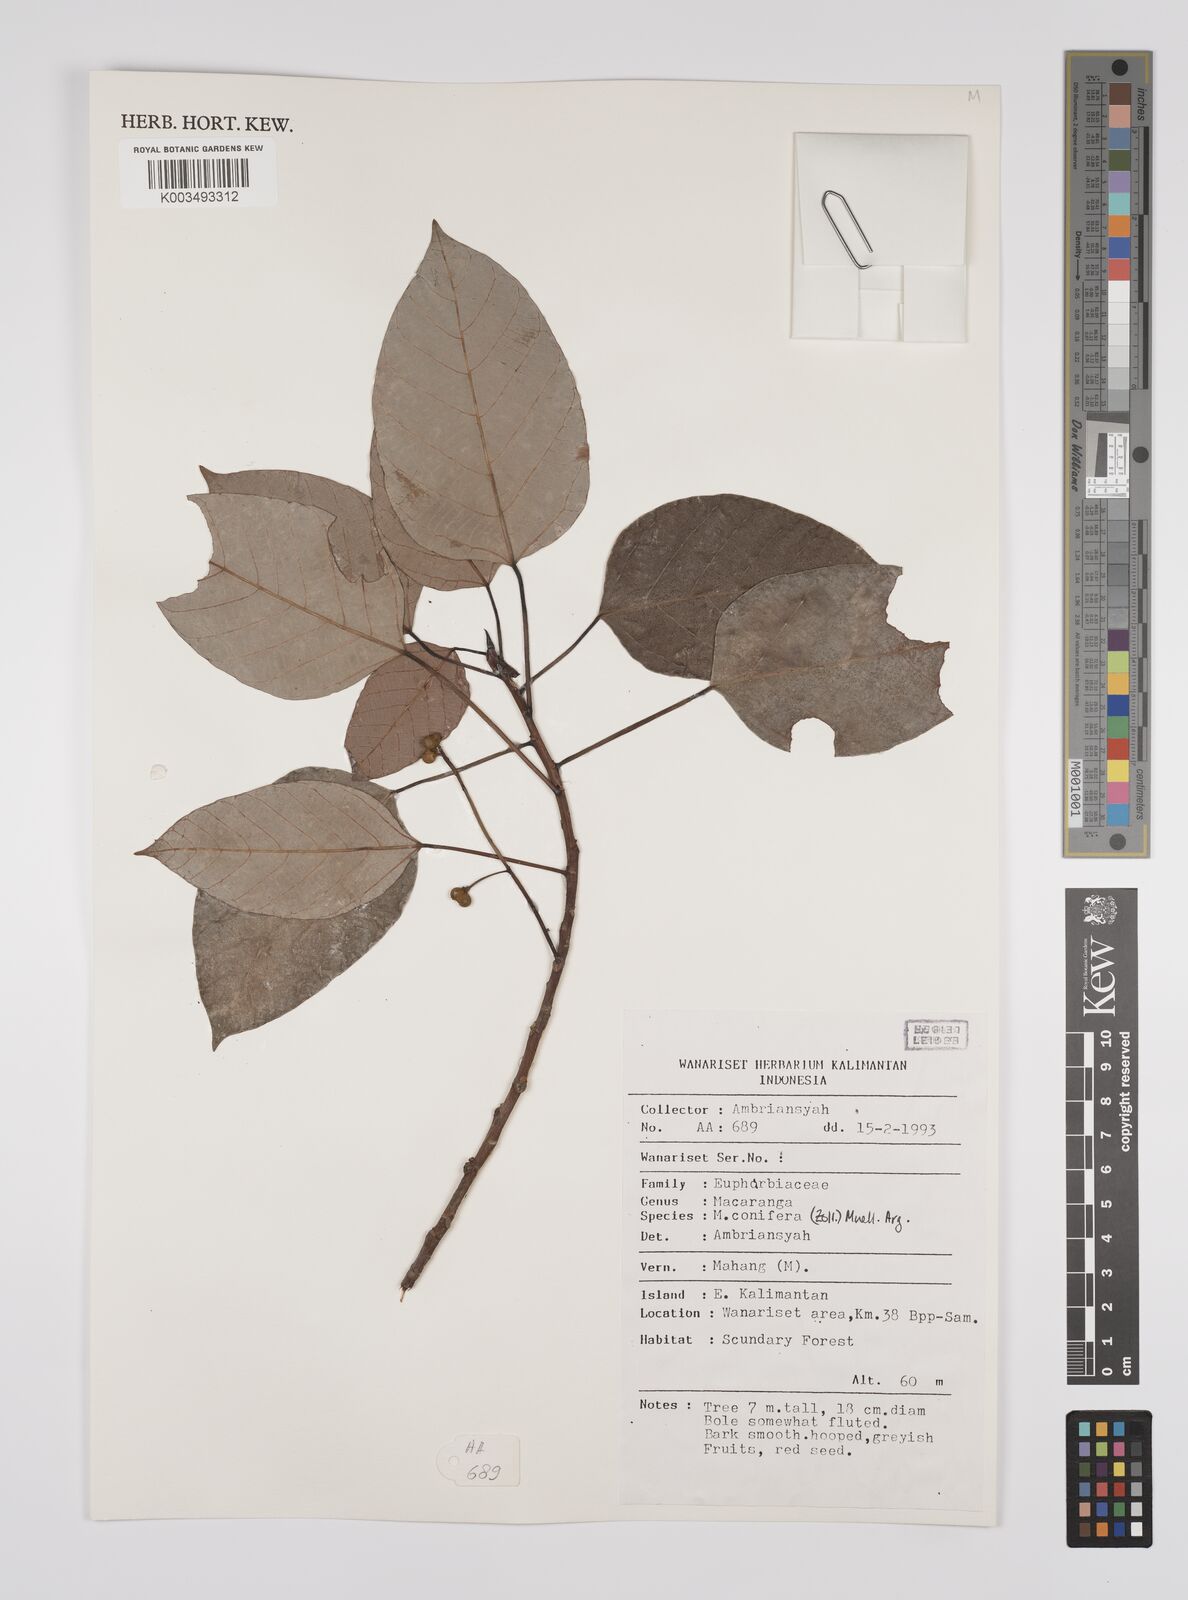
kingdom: Plantae
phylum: Tracheophyta
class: Magnoliopsida
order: Malpighiales
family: Euphorbiaceae
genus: Macaranga
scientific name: Macaranga conifera
